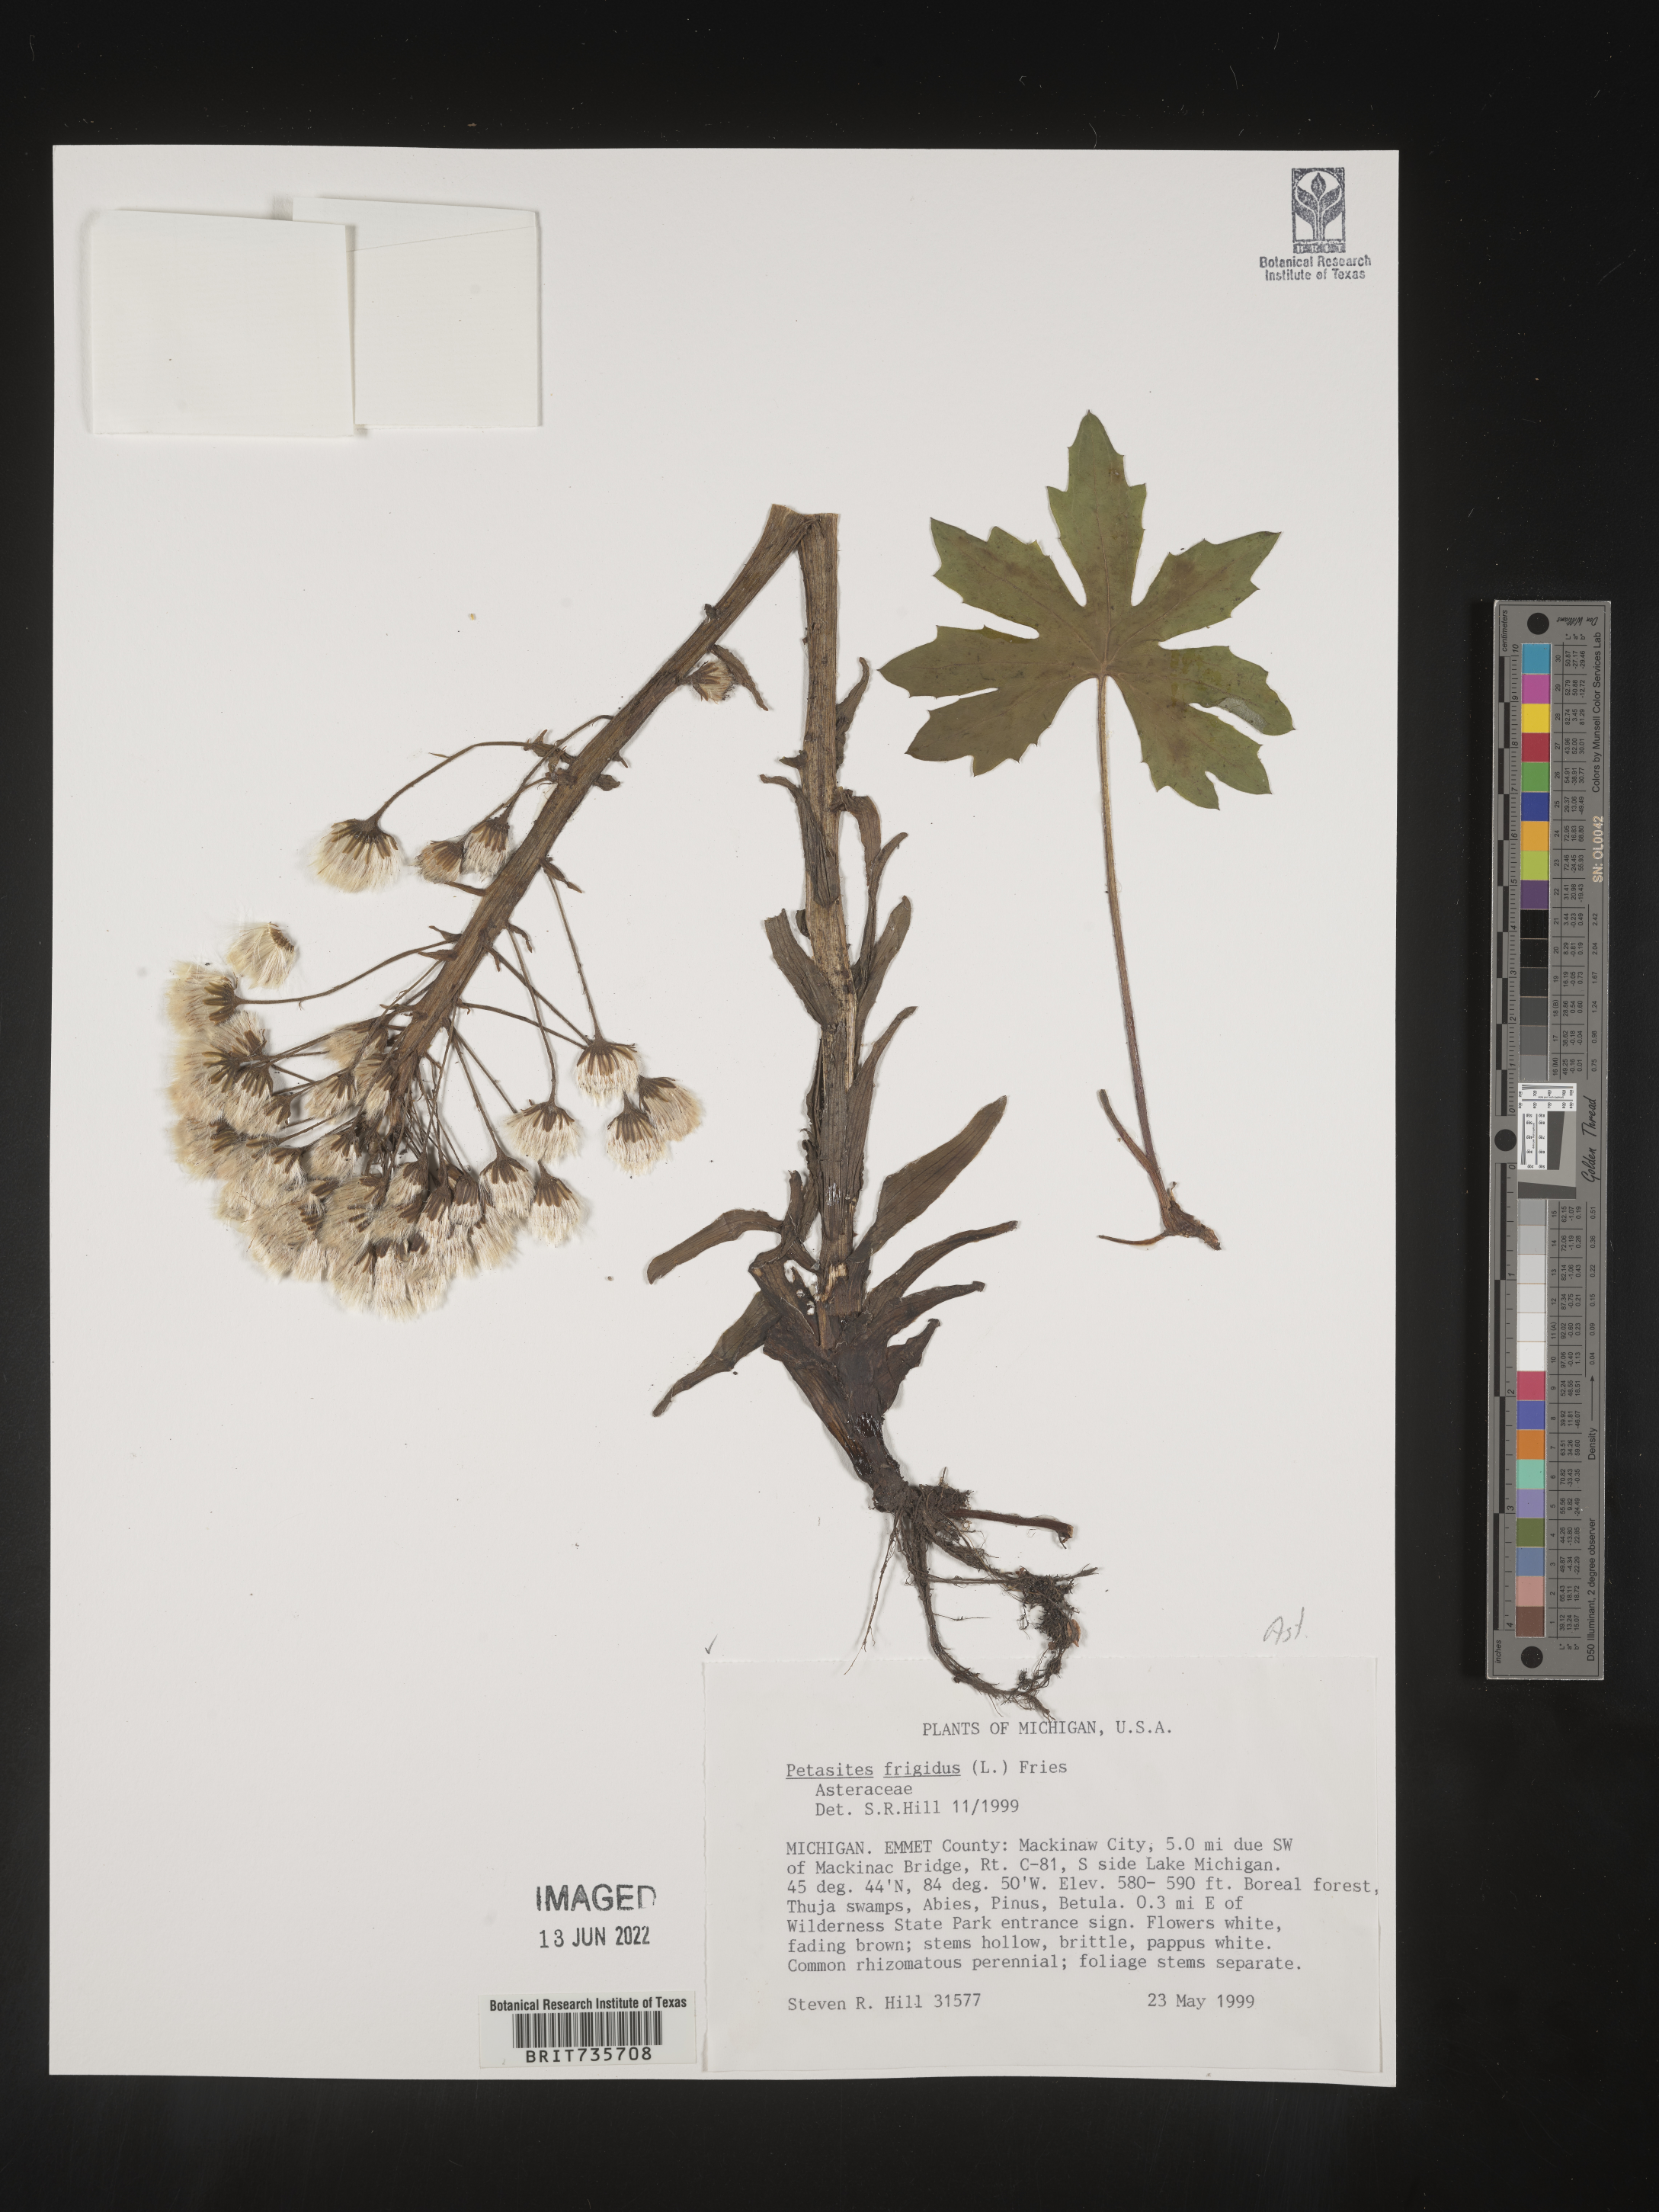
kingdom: Plantae
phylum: Tracheophyta
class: Magnoliopsida
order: Asterales
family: Asteraceae
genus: Petasites
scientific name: Petasites frigidus
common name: Arctic butterbur
